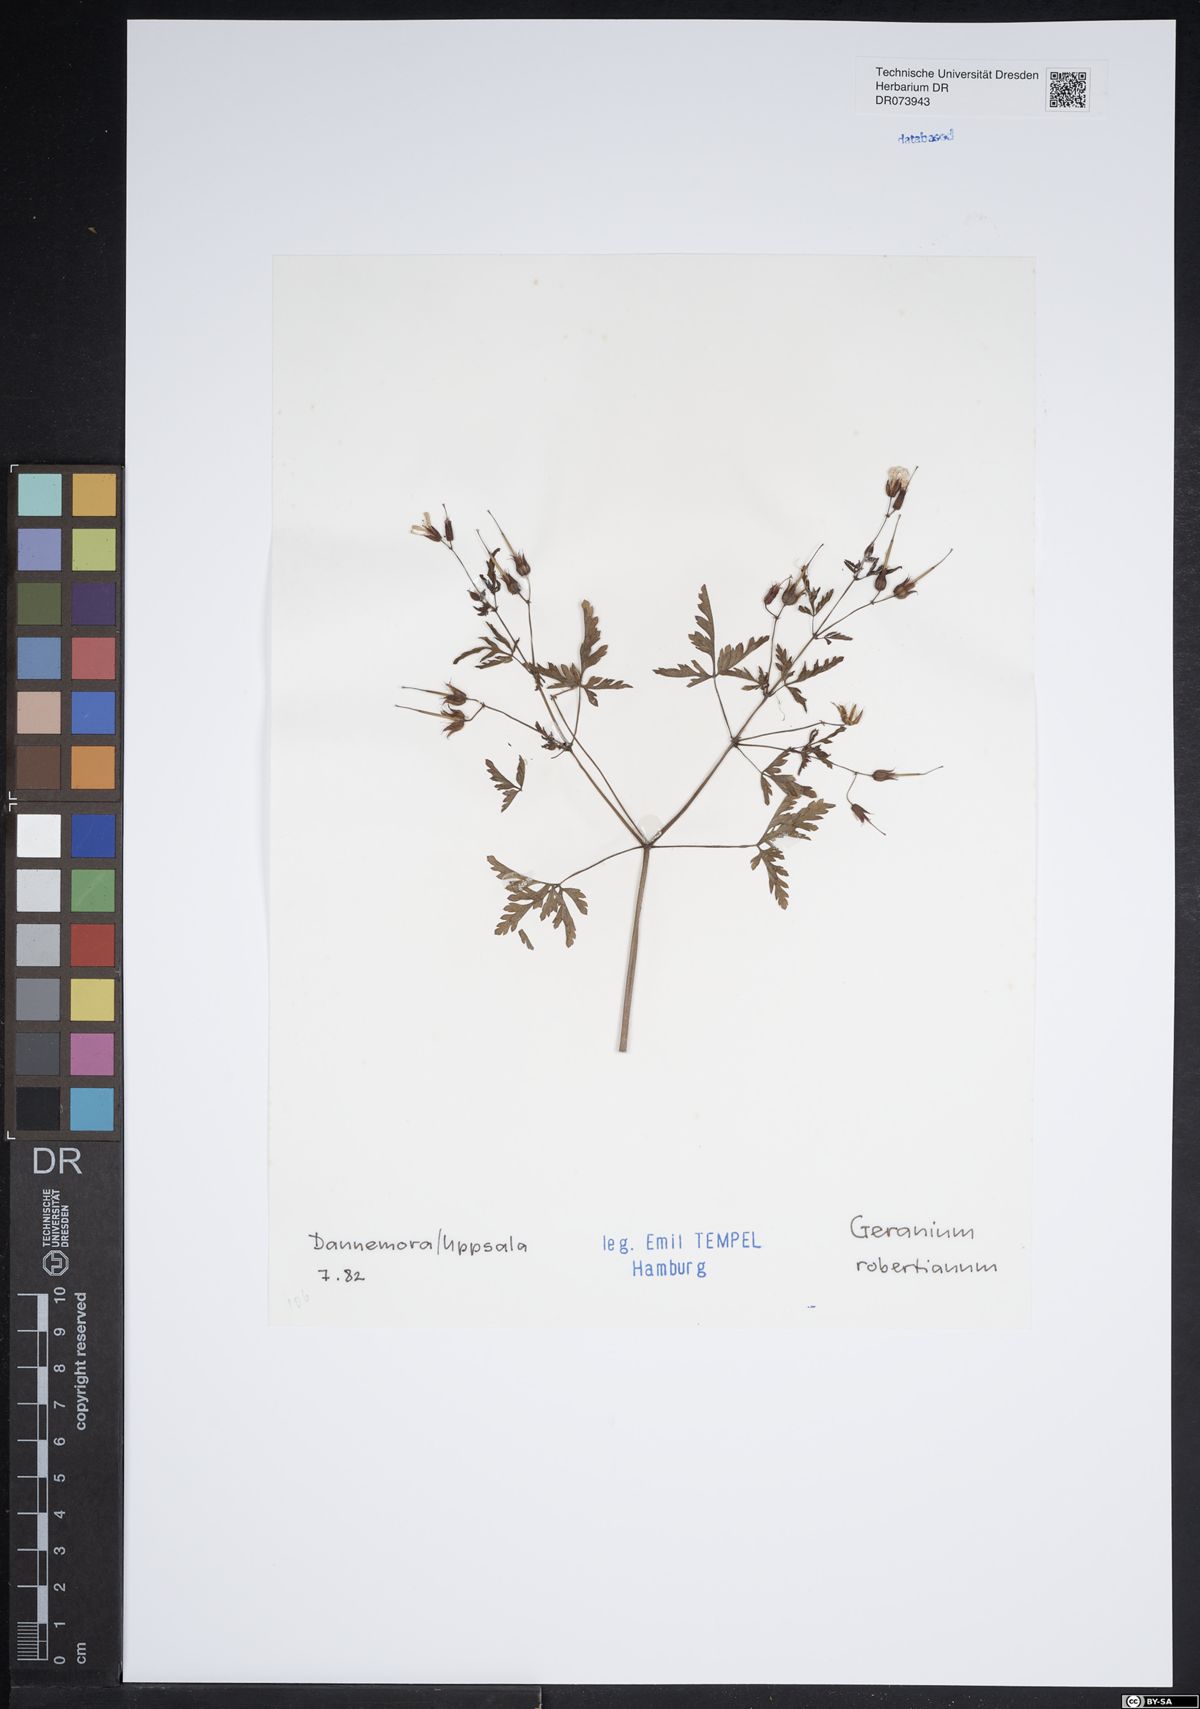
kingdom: Plantae
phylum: Tracheophyta
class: Magnoliopsida
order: Geraniales
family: Geraniaceae
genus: Geranium
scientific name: Geranium robertianum
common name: Herb-robert
